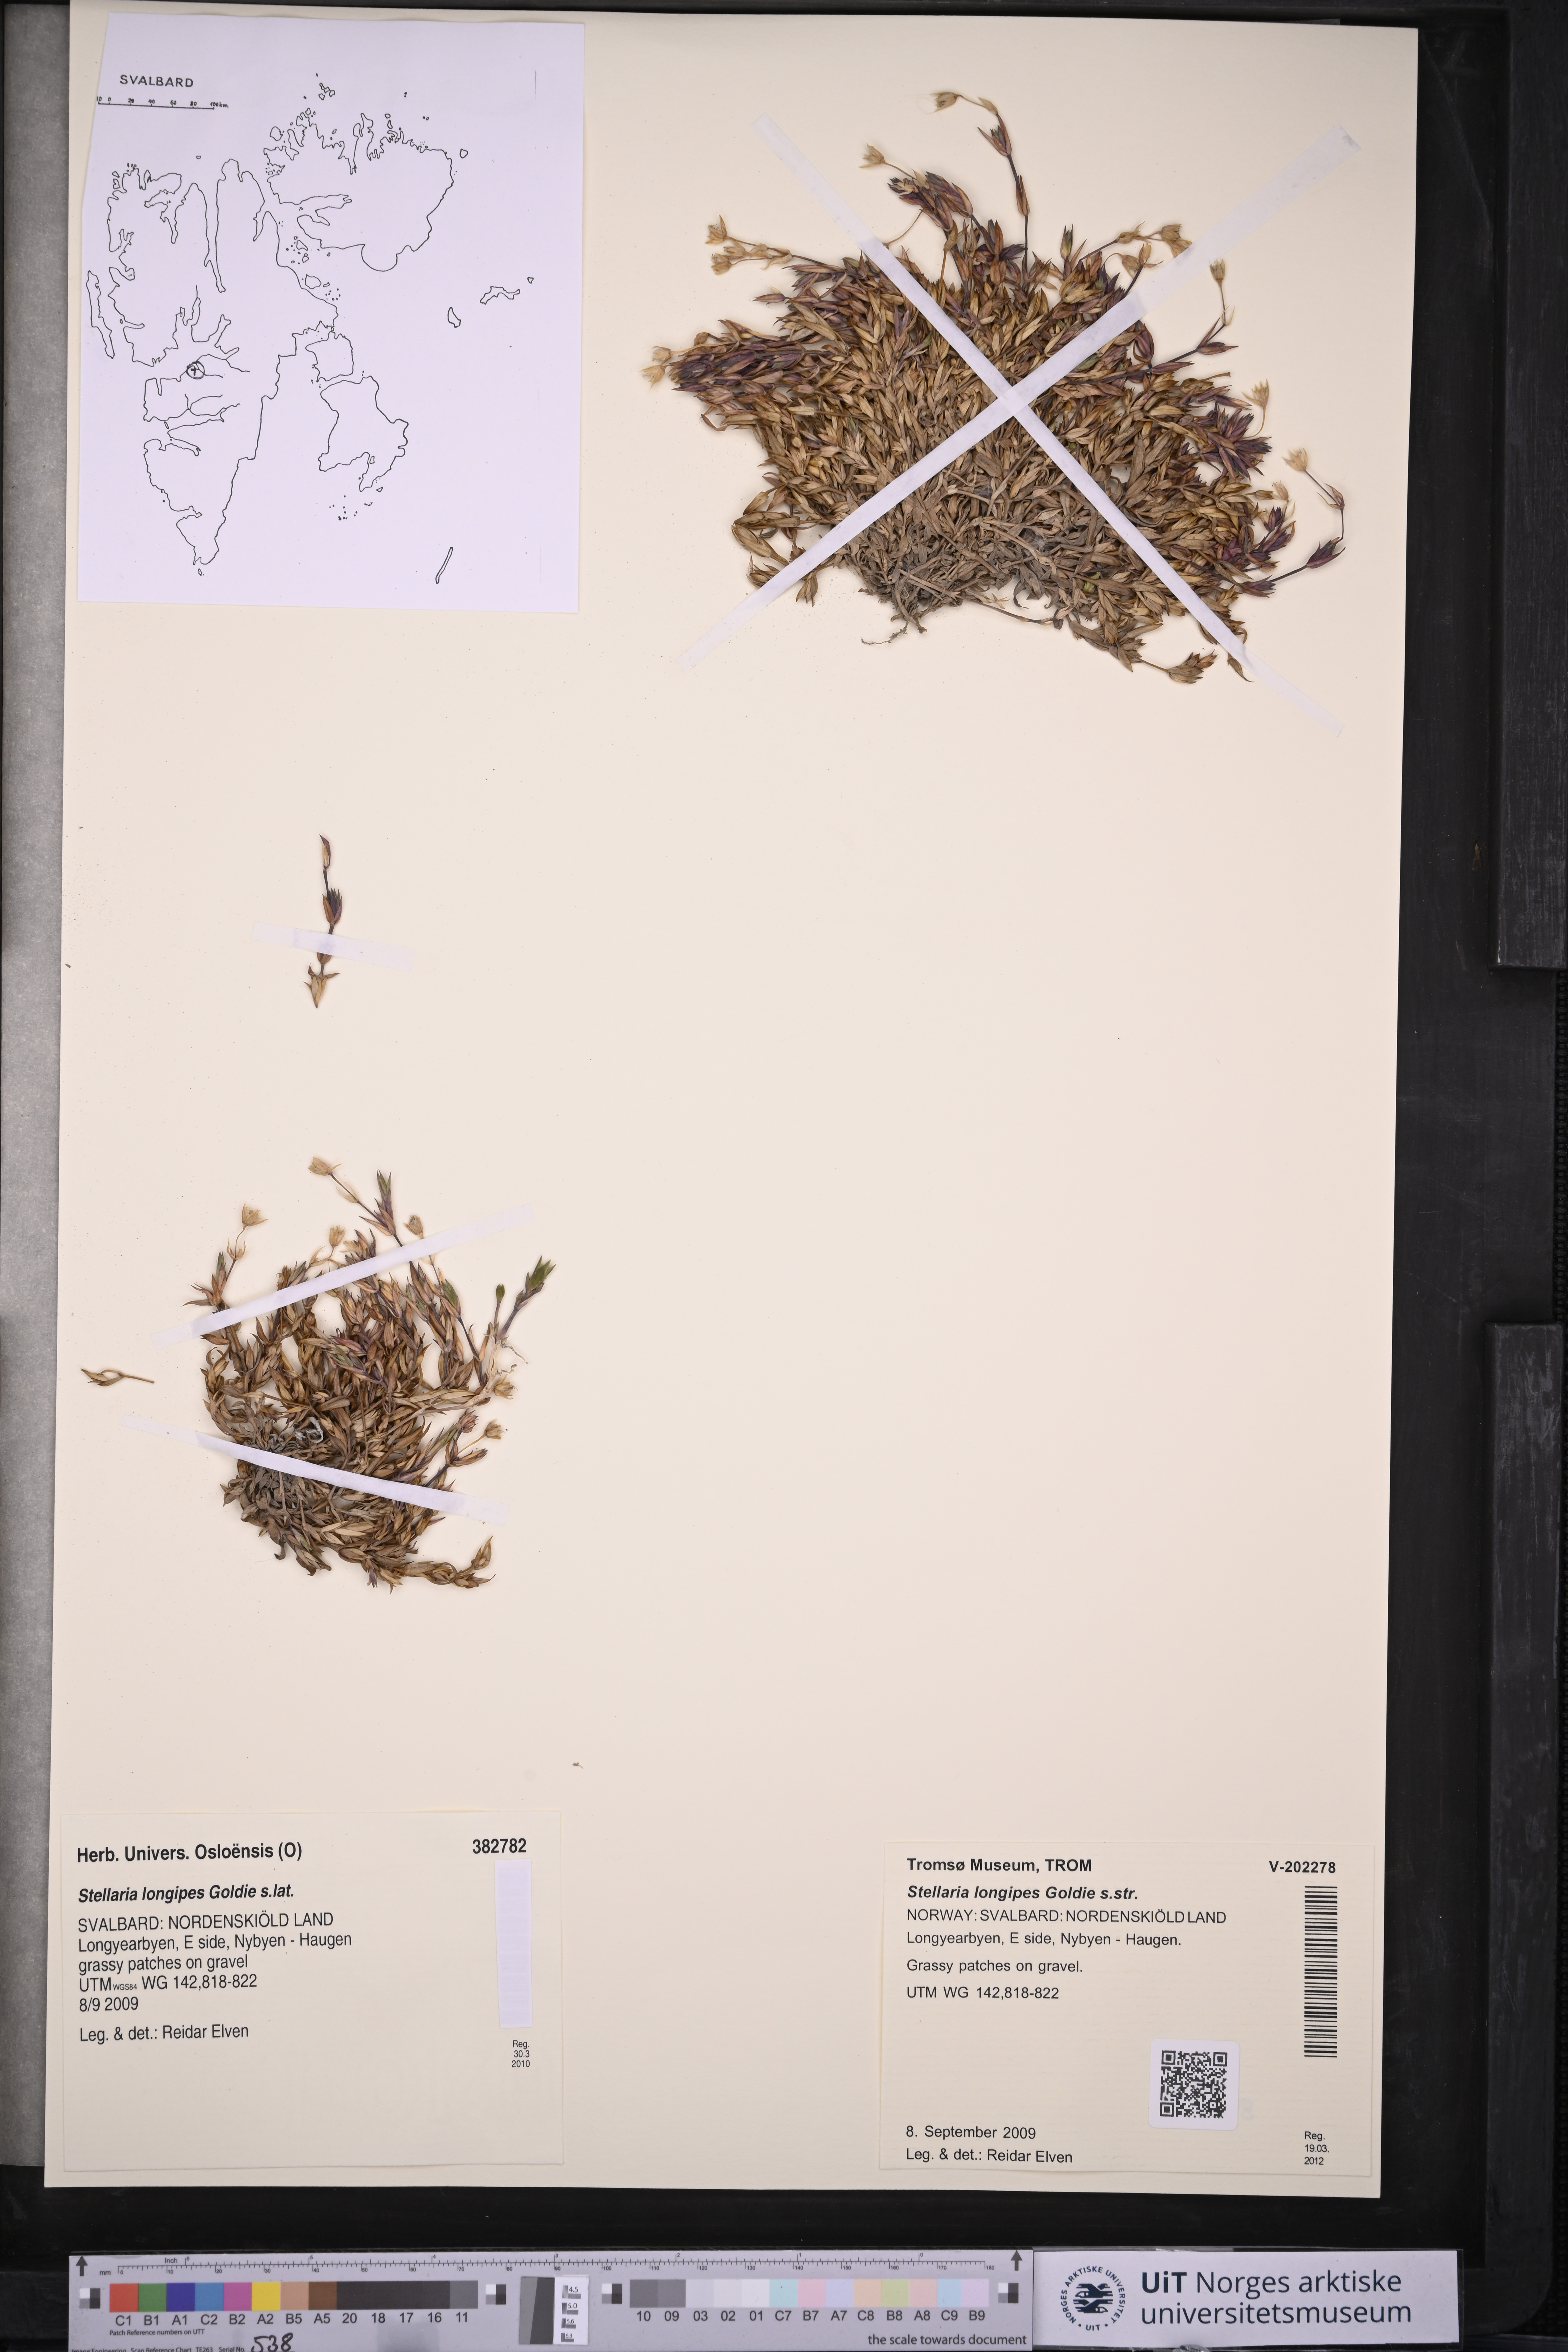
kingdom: Plantae
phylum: Tracheophyta
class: Magnoliopsida
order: Caryophyllales
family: Caryophyllaceae
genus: Stellaria
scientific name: Stellaria longipes
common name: Goldie's starwort
